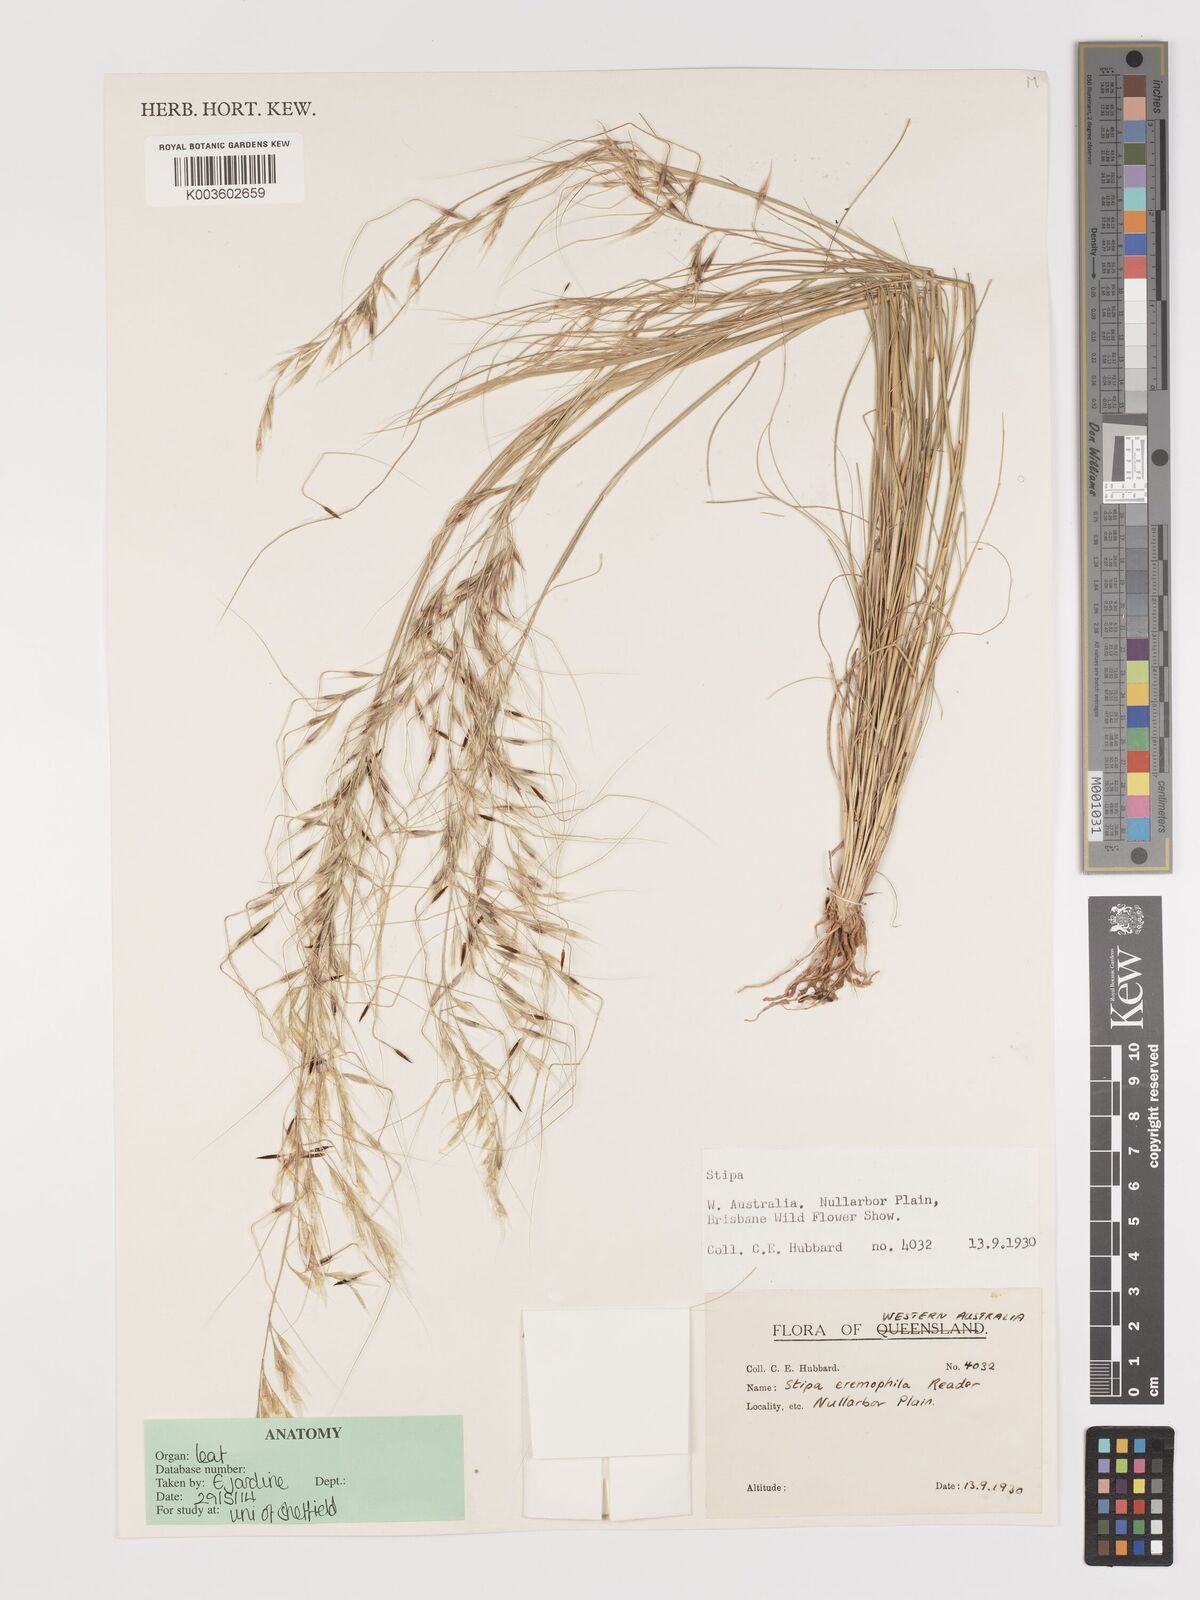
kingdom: Plantae
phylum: Tracheophyta
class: Liliopsida
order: Poales
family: Poaceae
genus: Austrostipa
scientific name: Austrostipa eremophila
